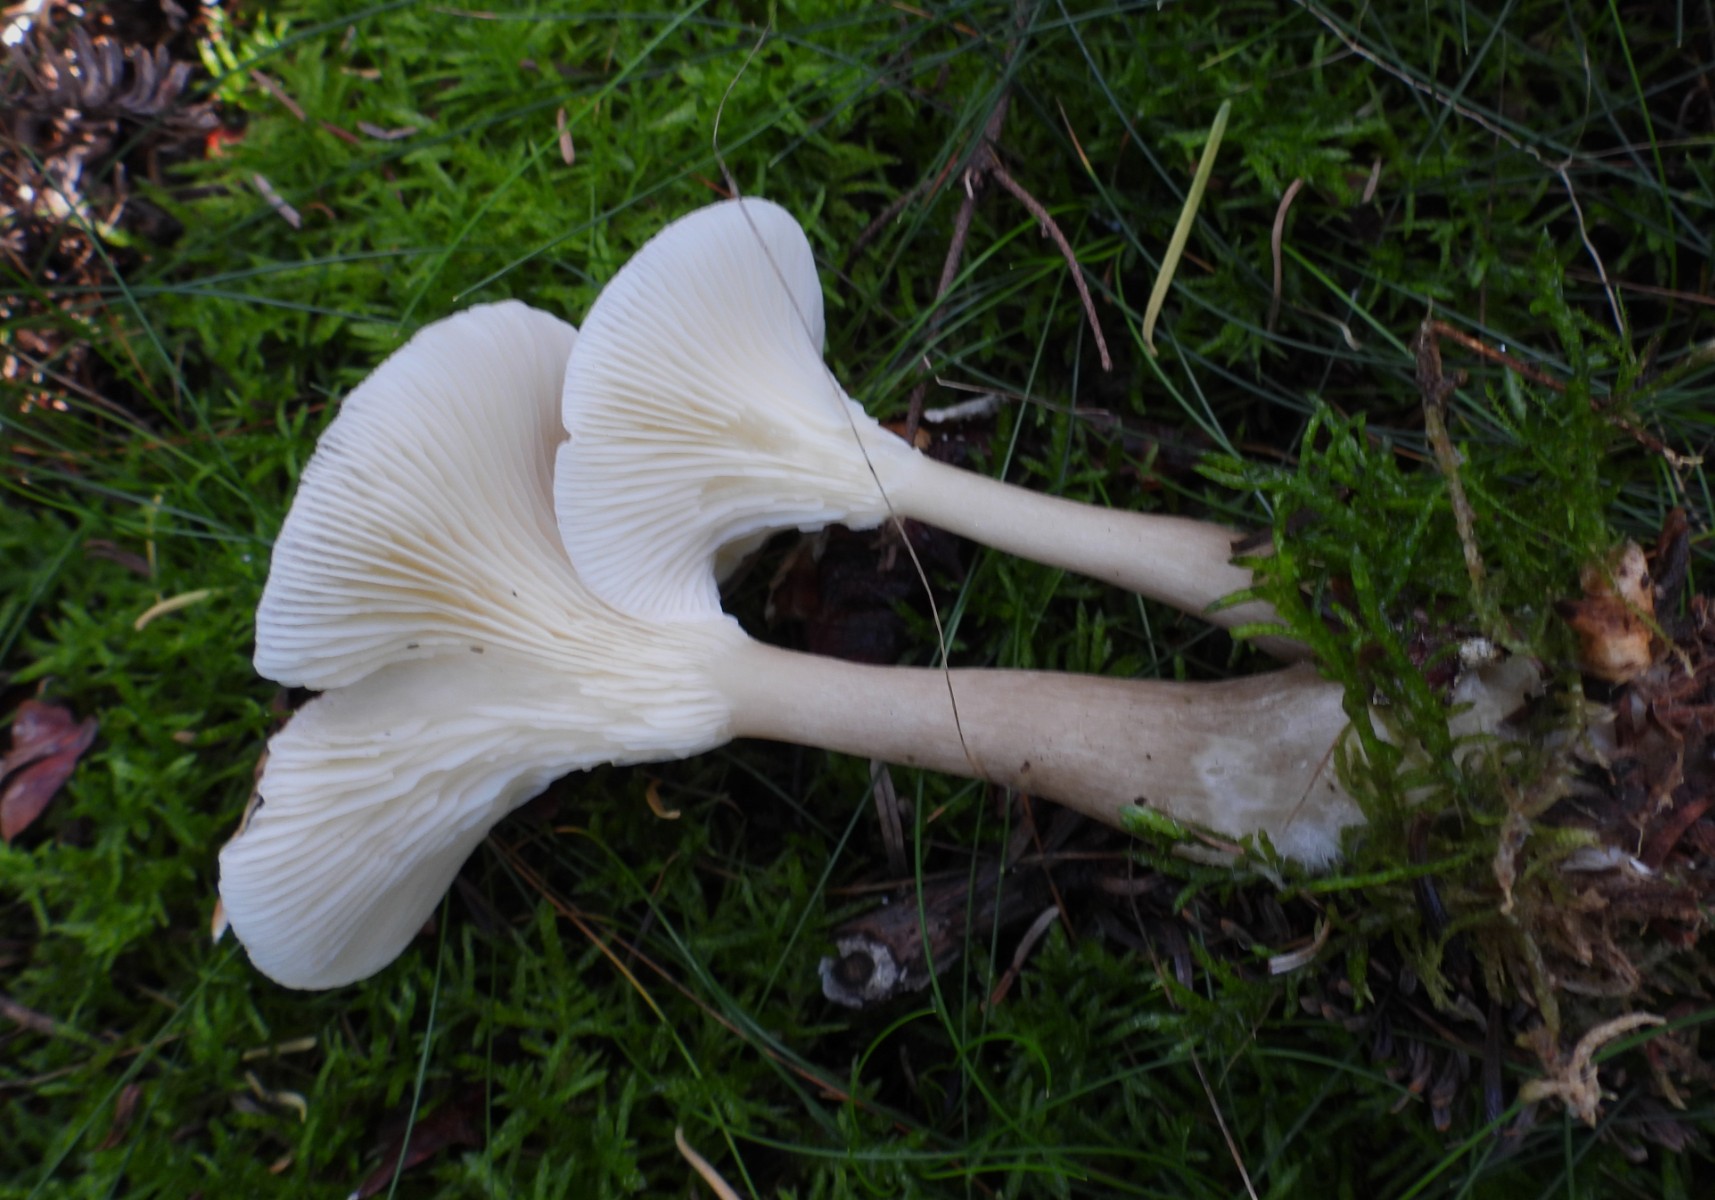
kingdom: Fungi
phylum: Basidiomycota
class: Agaricomycetes
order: Agaricales
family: Hygrophoraceae
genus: Ampulloclitocybe
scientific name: Ampulloclitocybe clavipes
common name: køllefod
